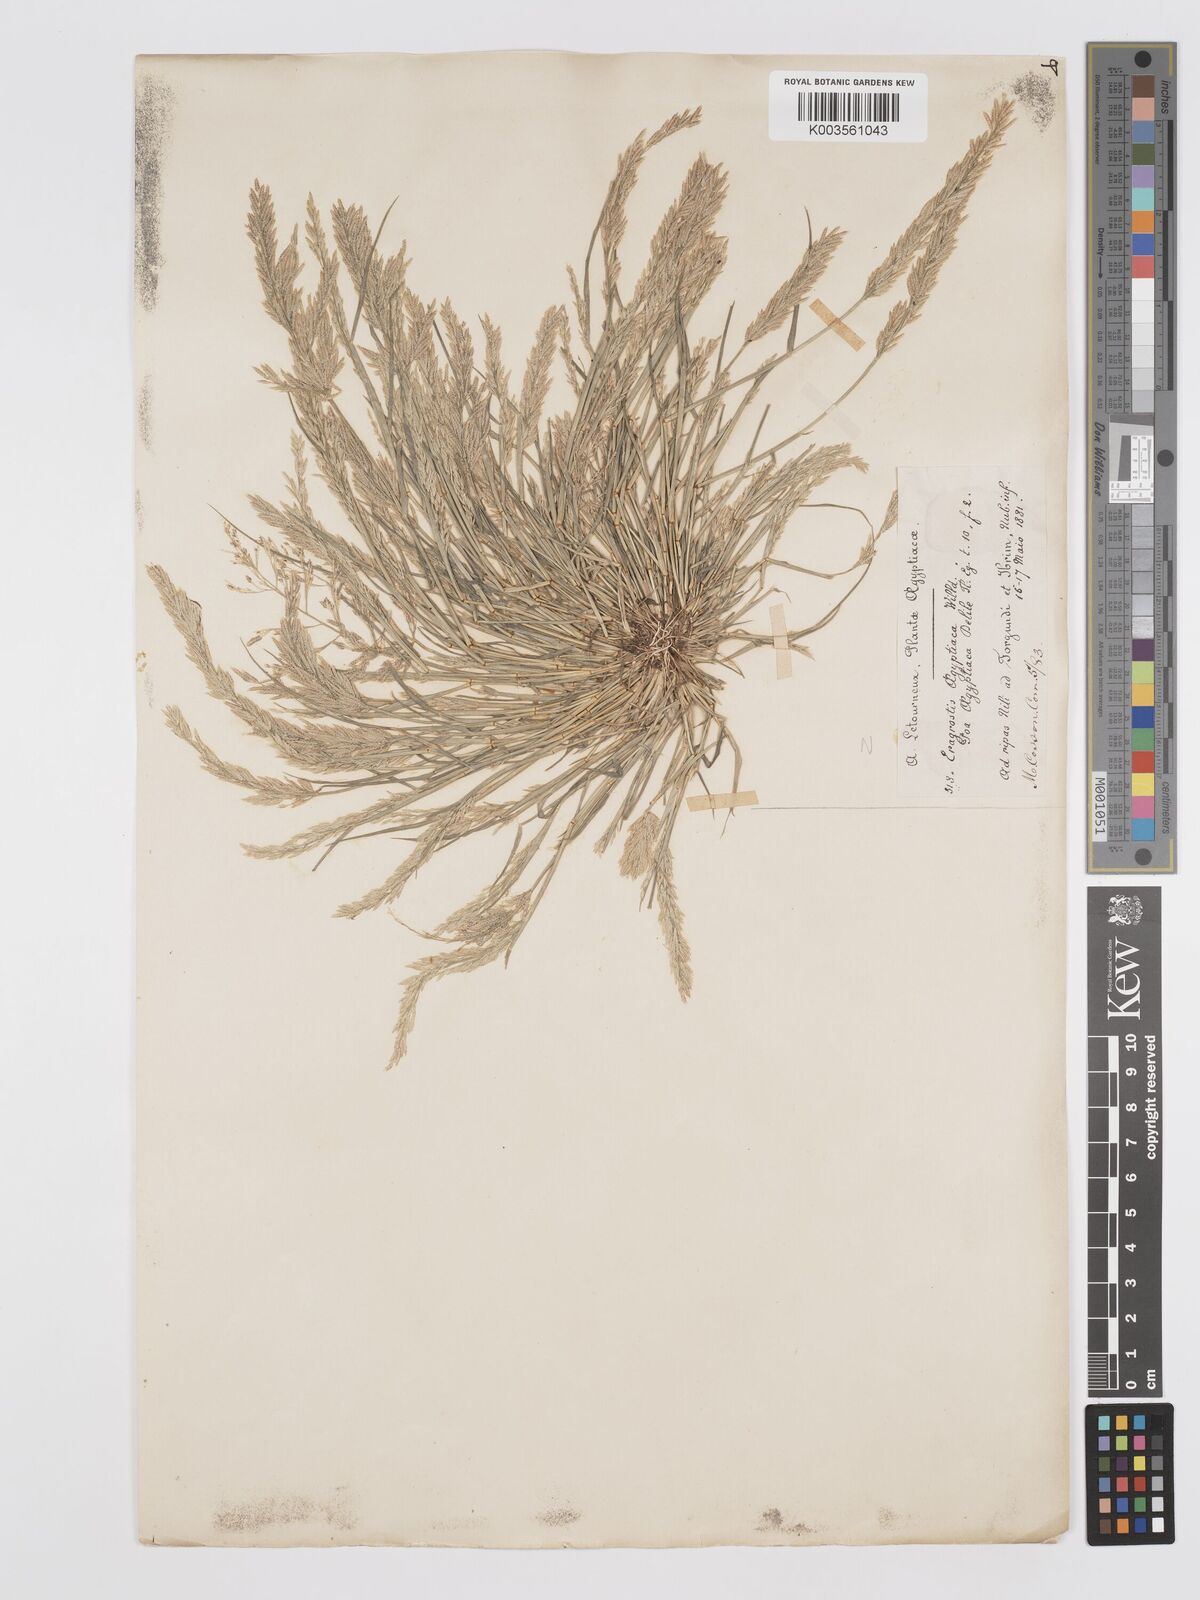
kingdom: Plantae
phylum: Tracheophyta
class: Liliopsida
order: Poales
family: Poaceae
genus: Eragrostis
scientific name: Eragrostis aegyptiaca
